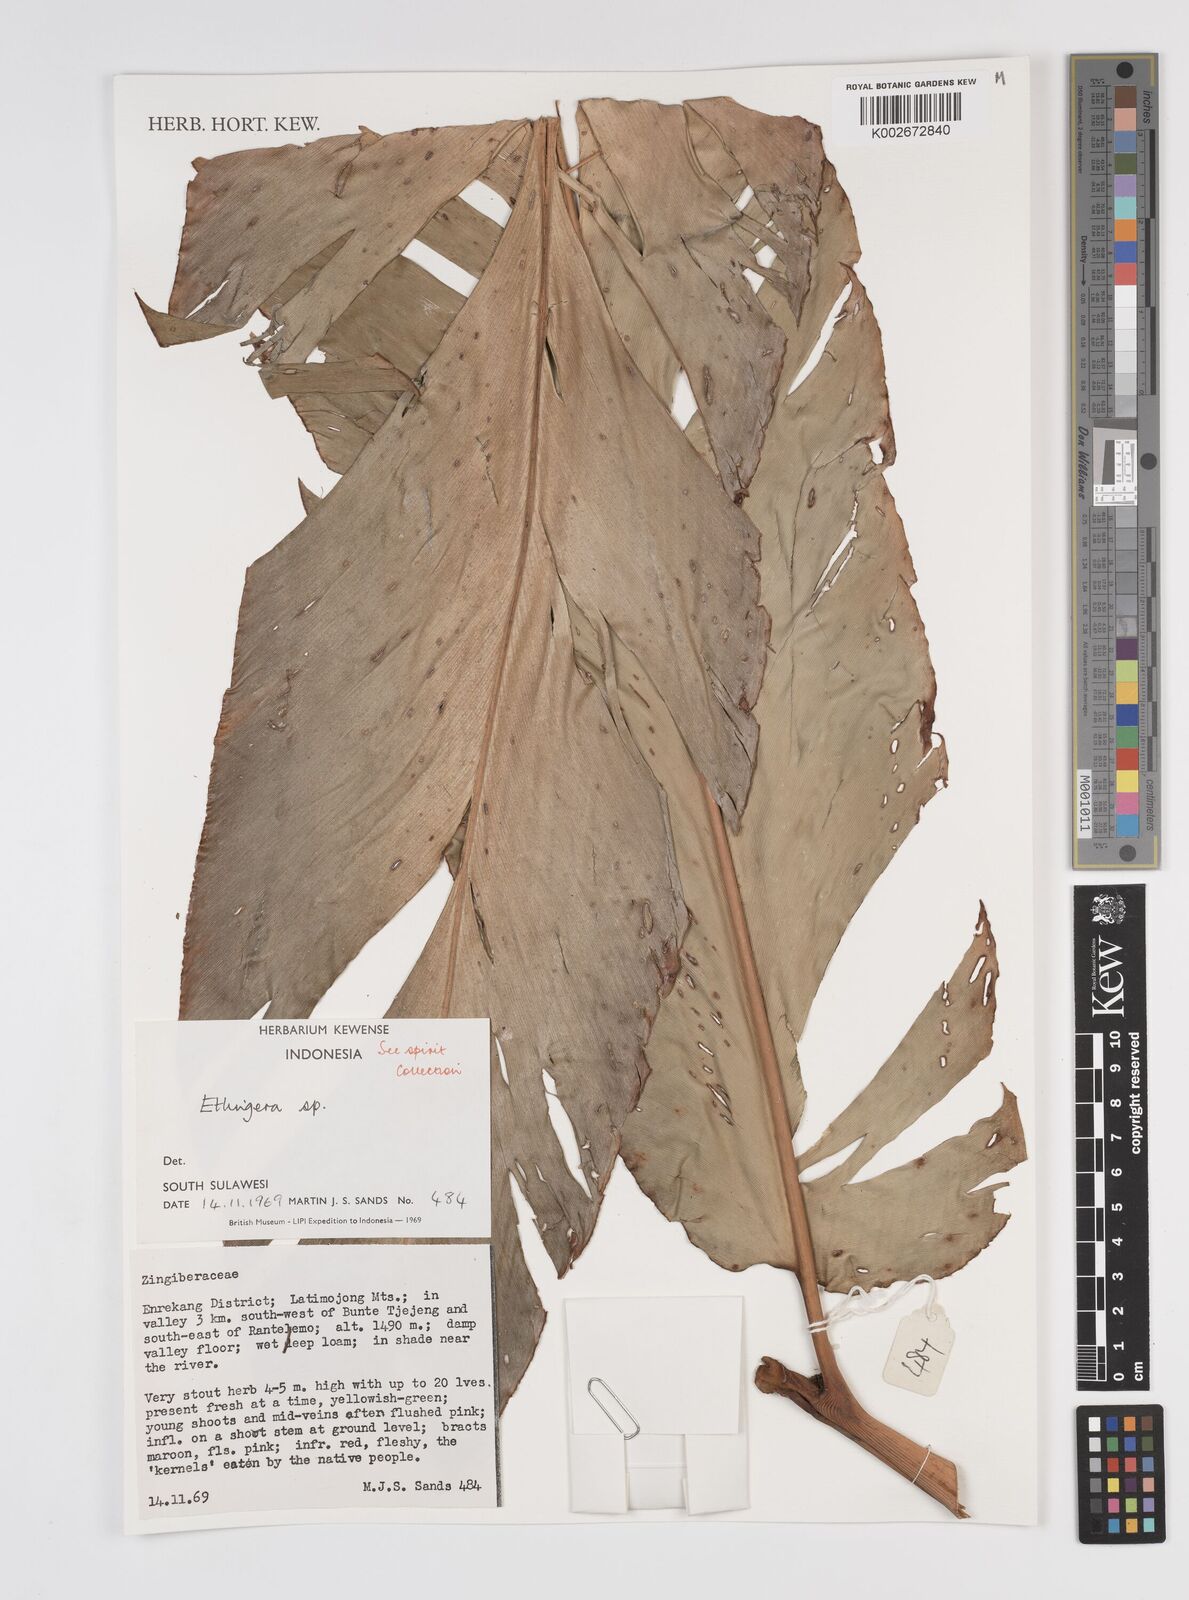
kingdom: Plantae
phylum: Tracheophyta
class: Liliopsida
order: Zingiberales
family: Zingiberaceae
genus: Etlingera
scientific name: Etlingera
